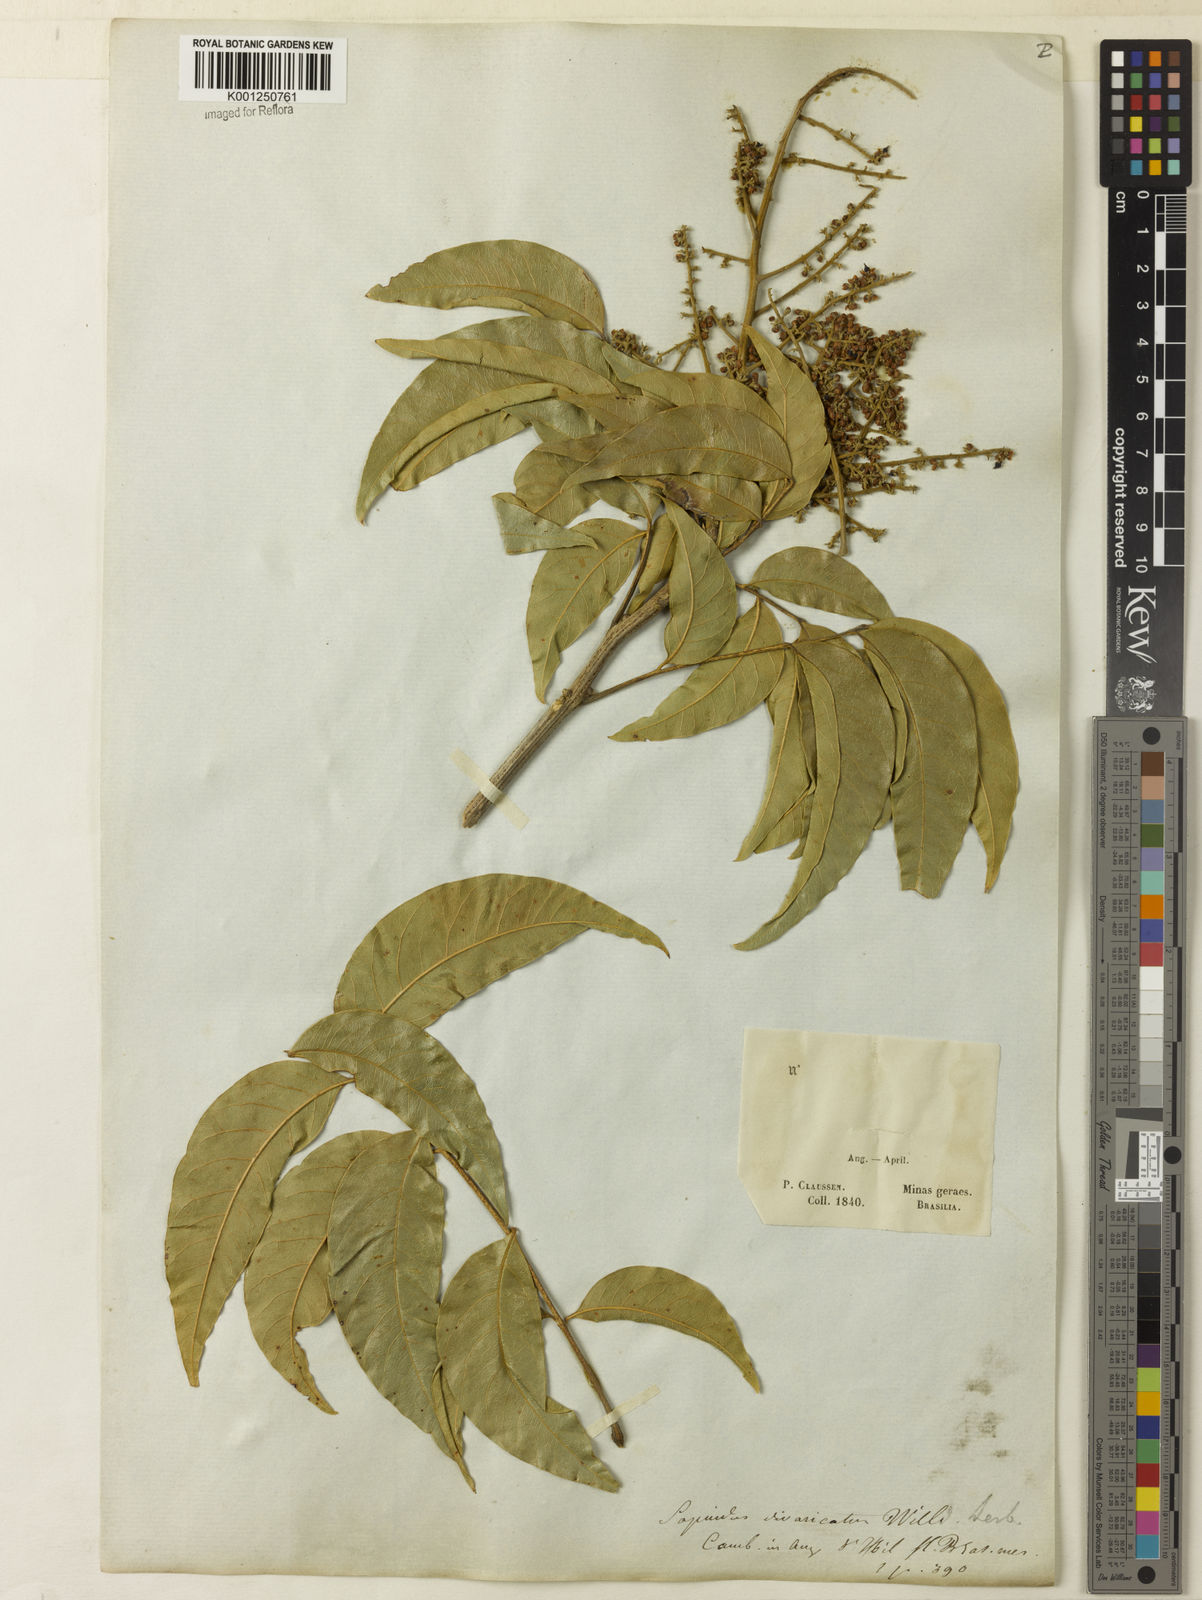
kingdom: Plantae
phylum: Tracheophyta
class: Magnoliopsida
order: Sapindales
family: Sapindaceae
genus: Sapindus
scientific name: Sapindus
